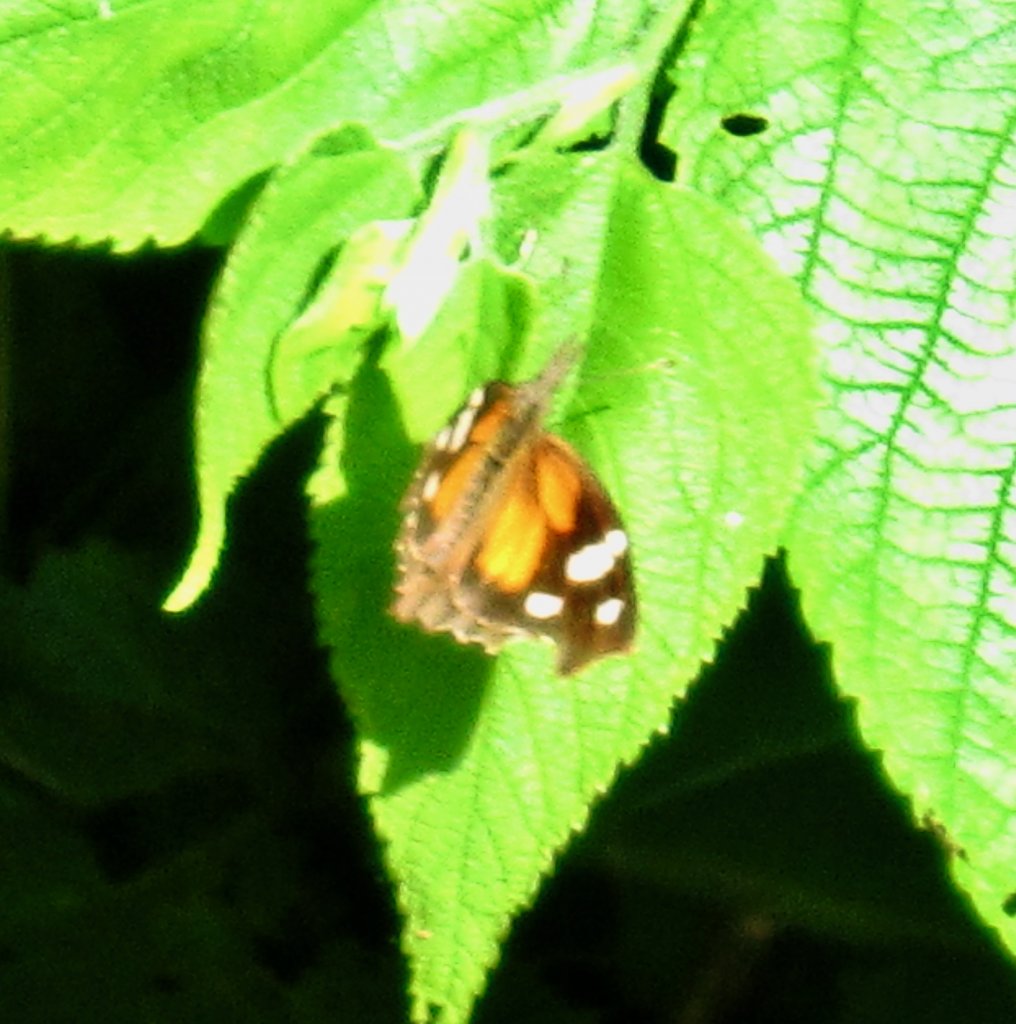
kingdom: Animalia
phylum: Arthropoda
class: Insecta
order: Lepidoptera
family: Nymphalidae
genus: Libytheana
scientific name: Libytheana carinenta
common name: American Snout
